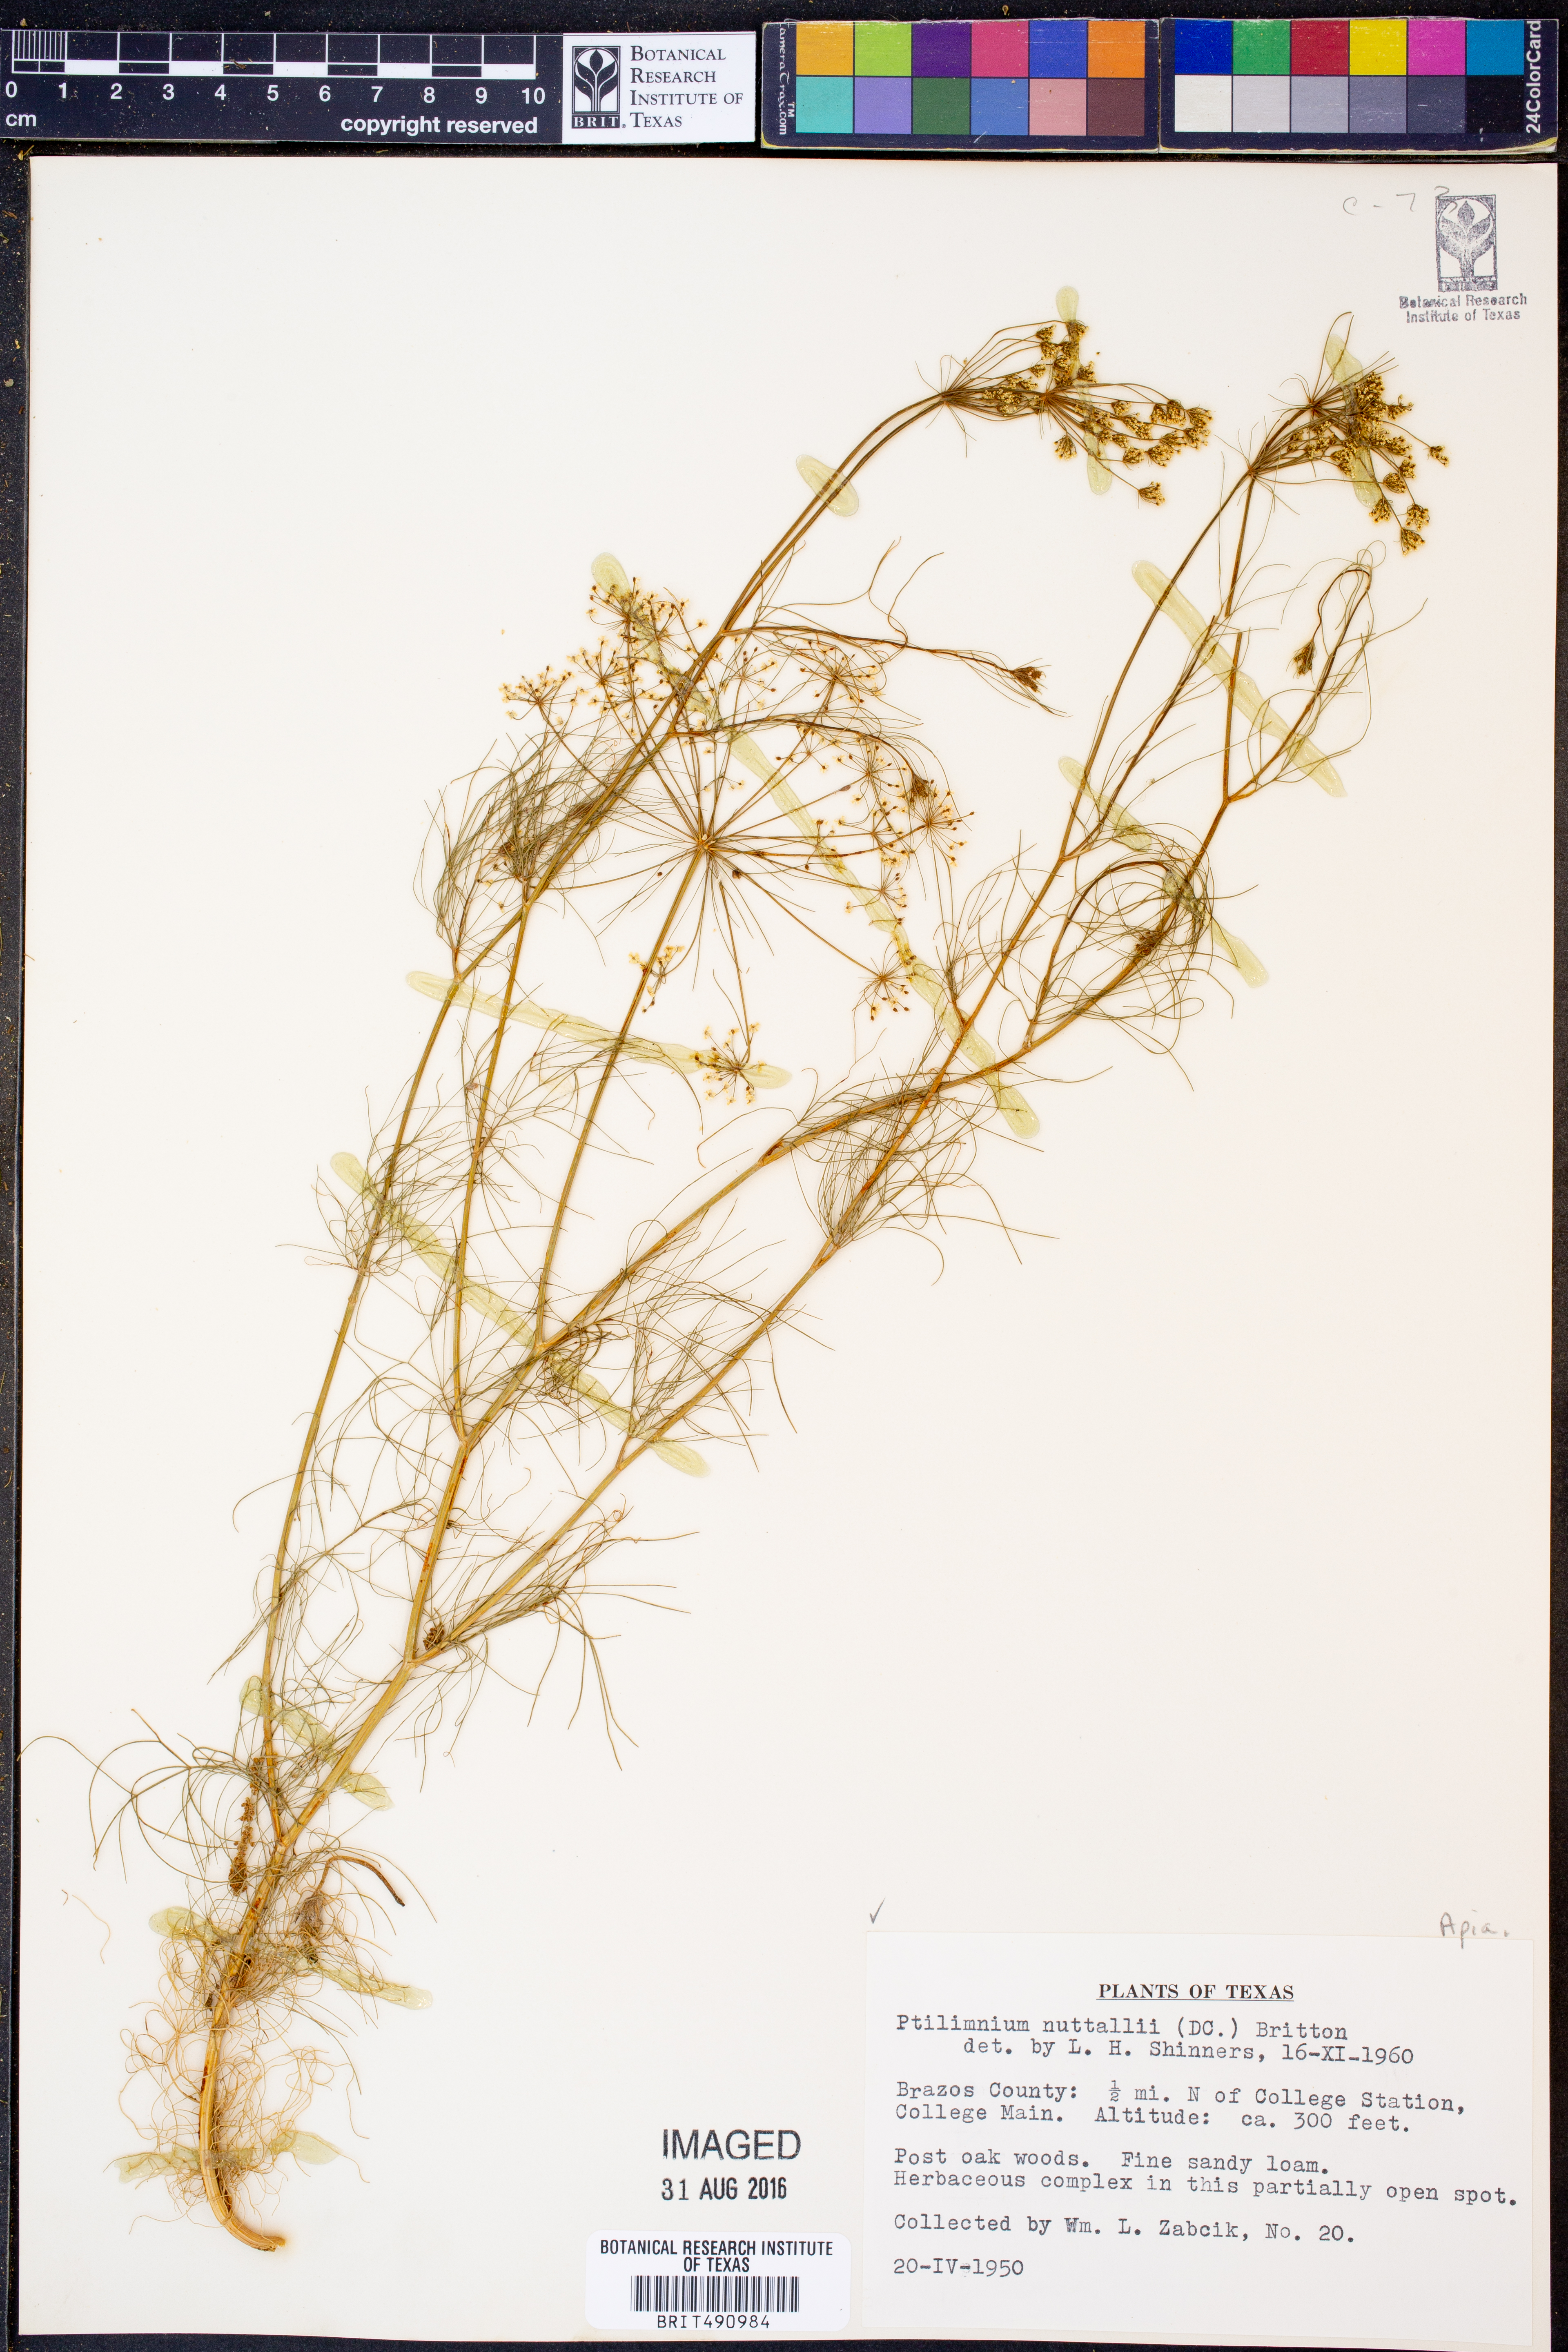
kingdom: Plantae
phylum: Tracheophyta
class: Magnoliopsida
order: Apiales
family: Apiaceae
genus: Ptilimnium
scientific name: Ptilimnium nuttallii
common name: Ozark bishop's-weed
